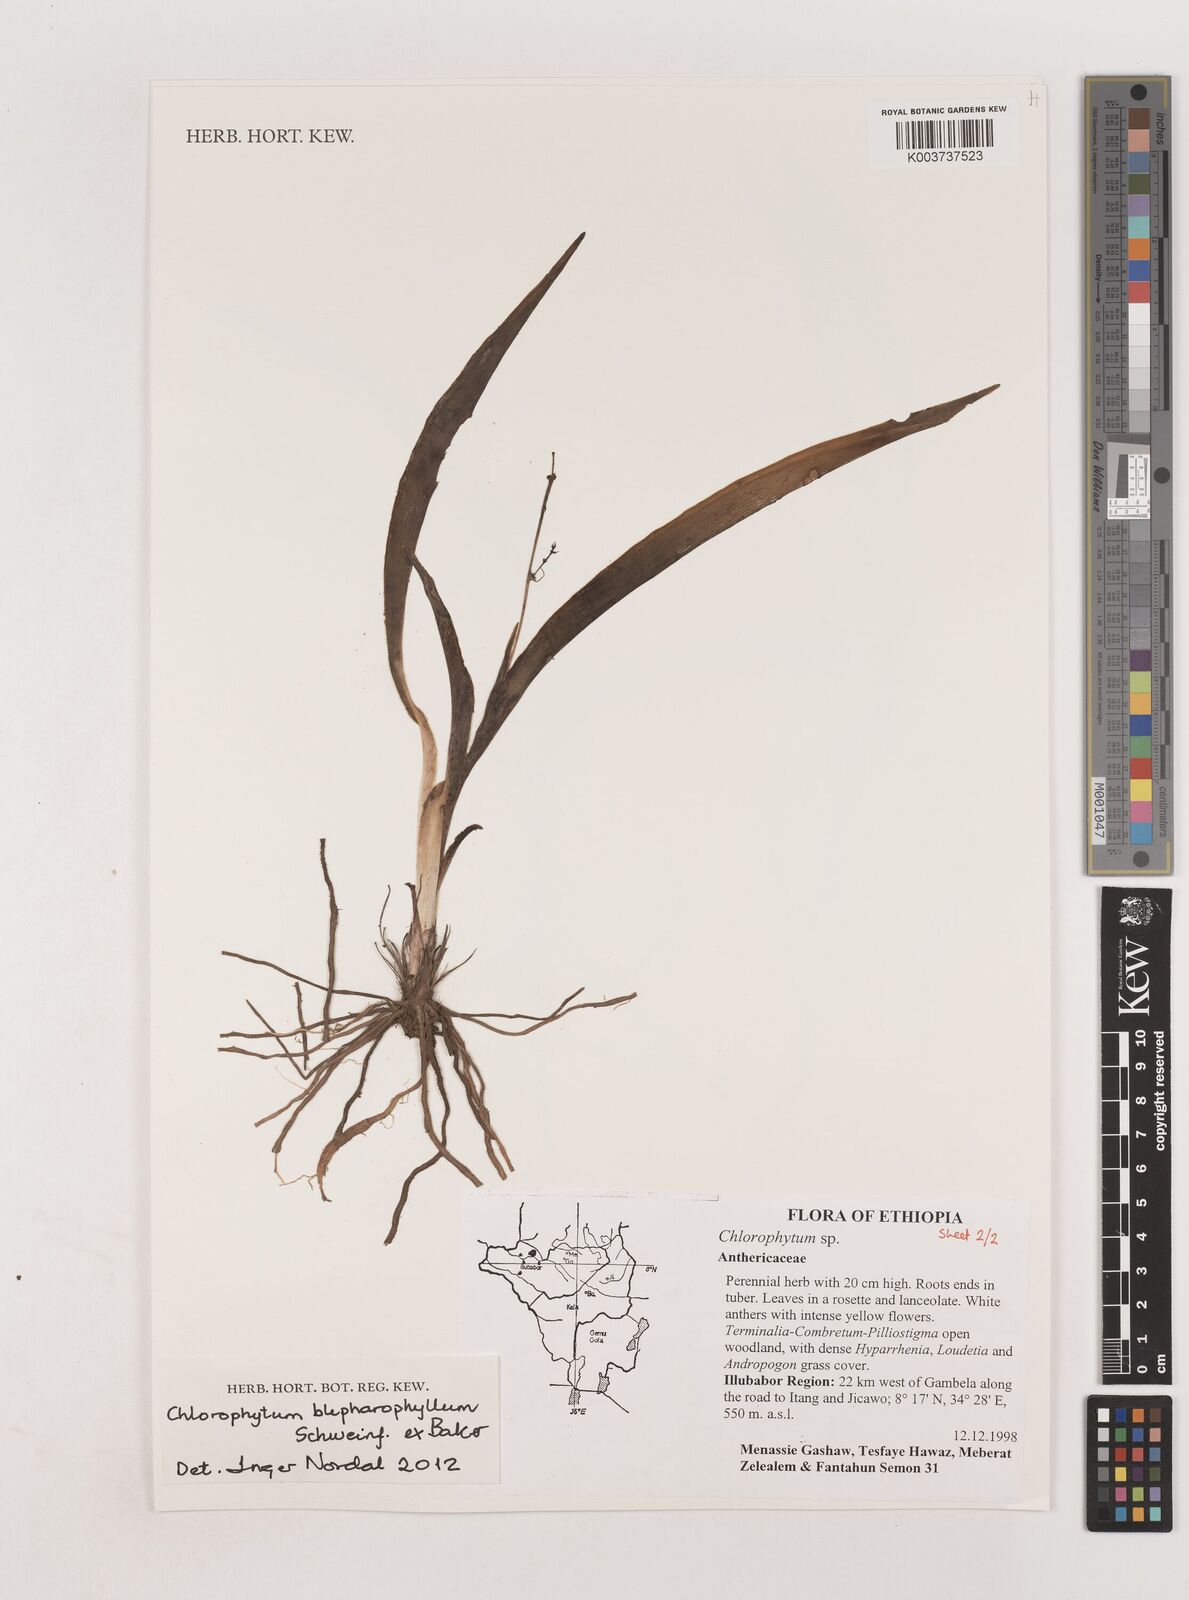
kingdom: Plantae
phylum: Tracheophyta
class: Liliopsida
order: Asparagales
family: Asparagaceae
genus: Chlorophytum
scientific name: Chlorophytum blepharophyllum
